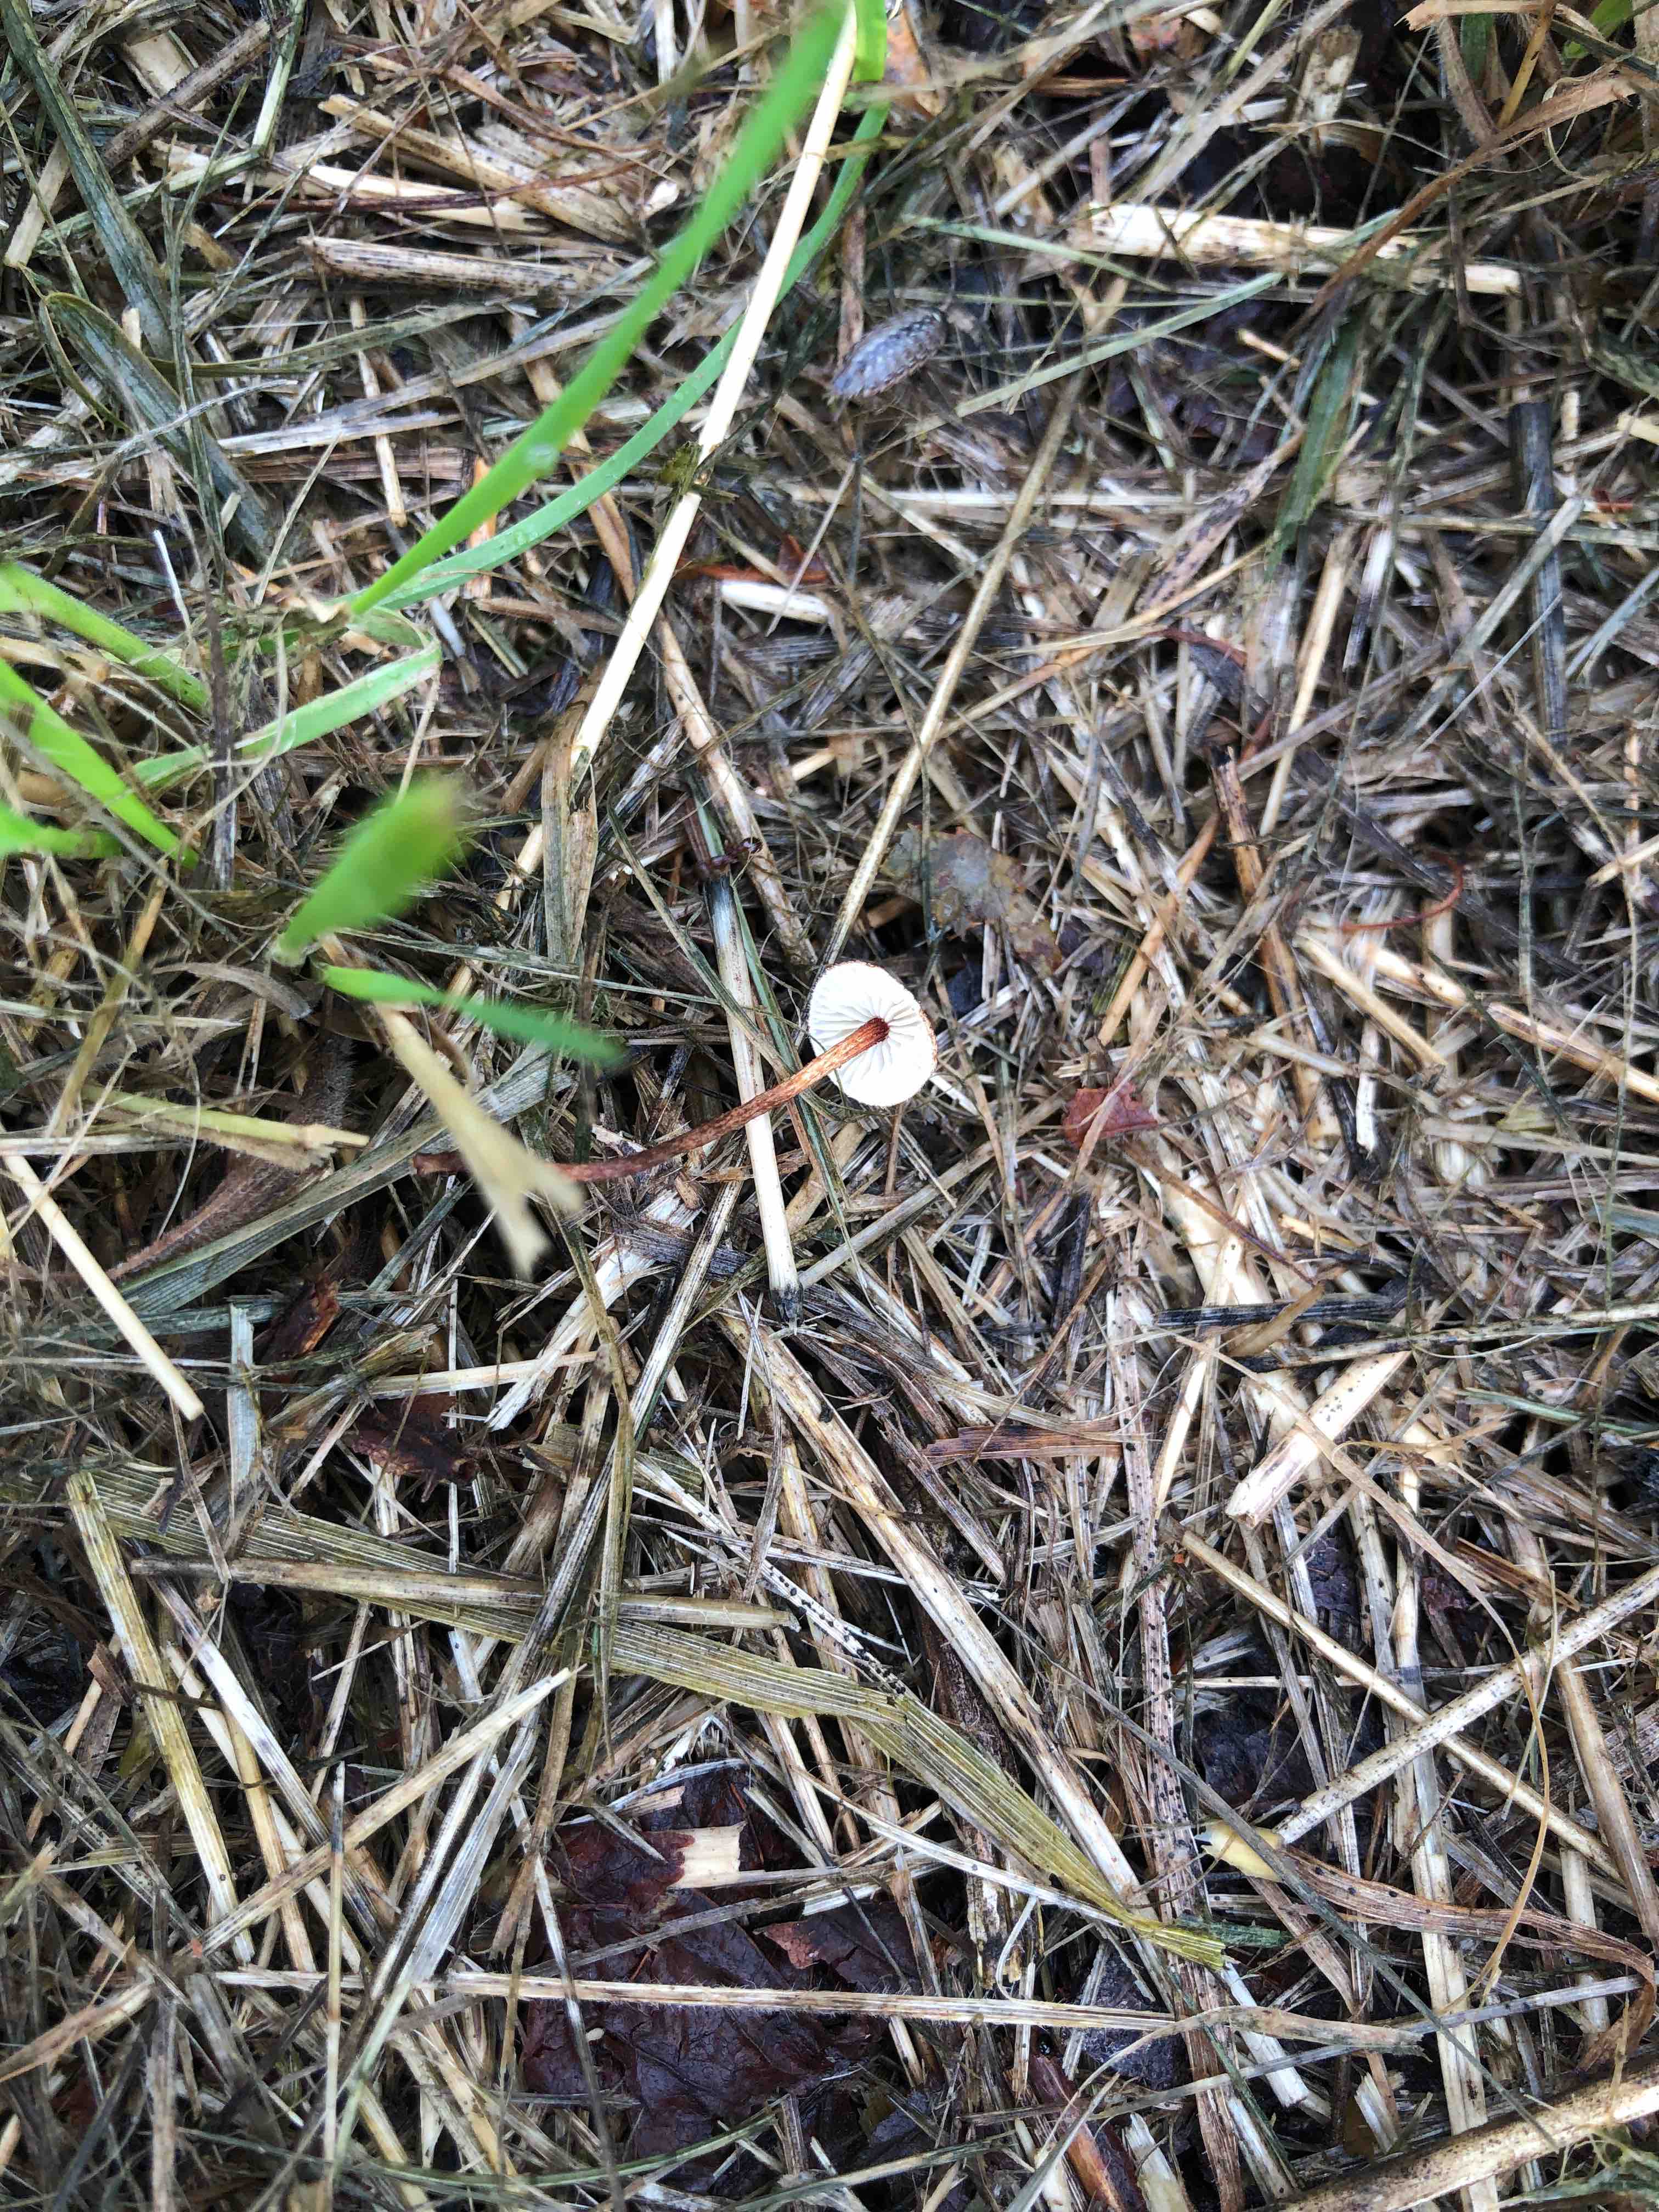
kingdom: Fungi
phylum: Basidiomycota
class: Agaricomycetes
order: Agaricales
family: Marasmiaceae
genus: Crinipellis
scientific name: Crinipellis scabella
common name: børstefod
